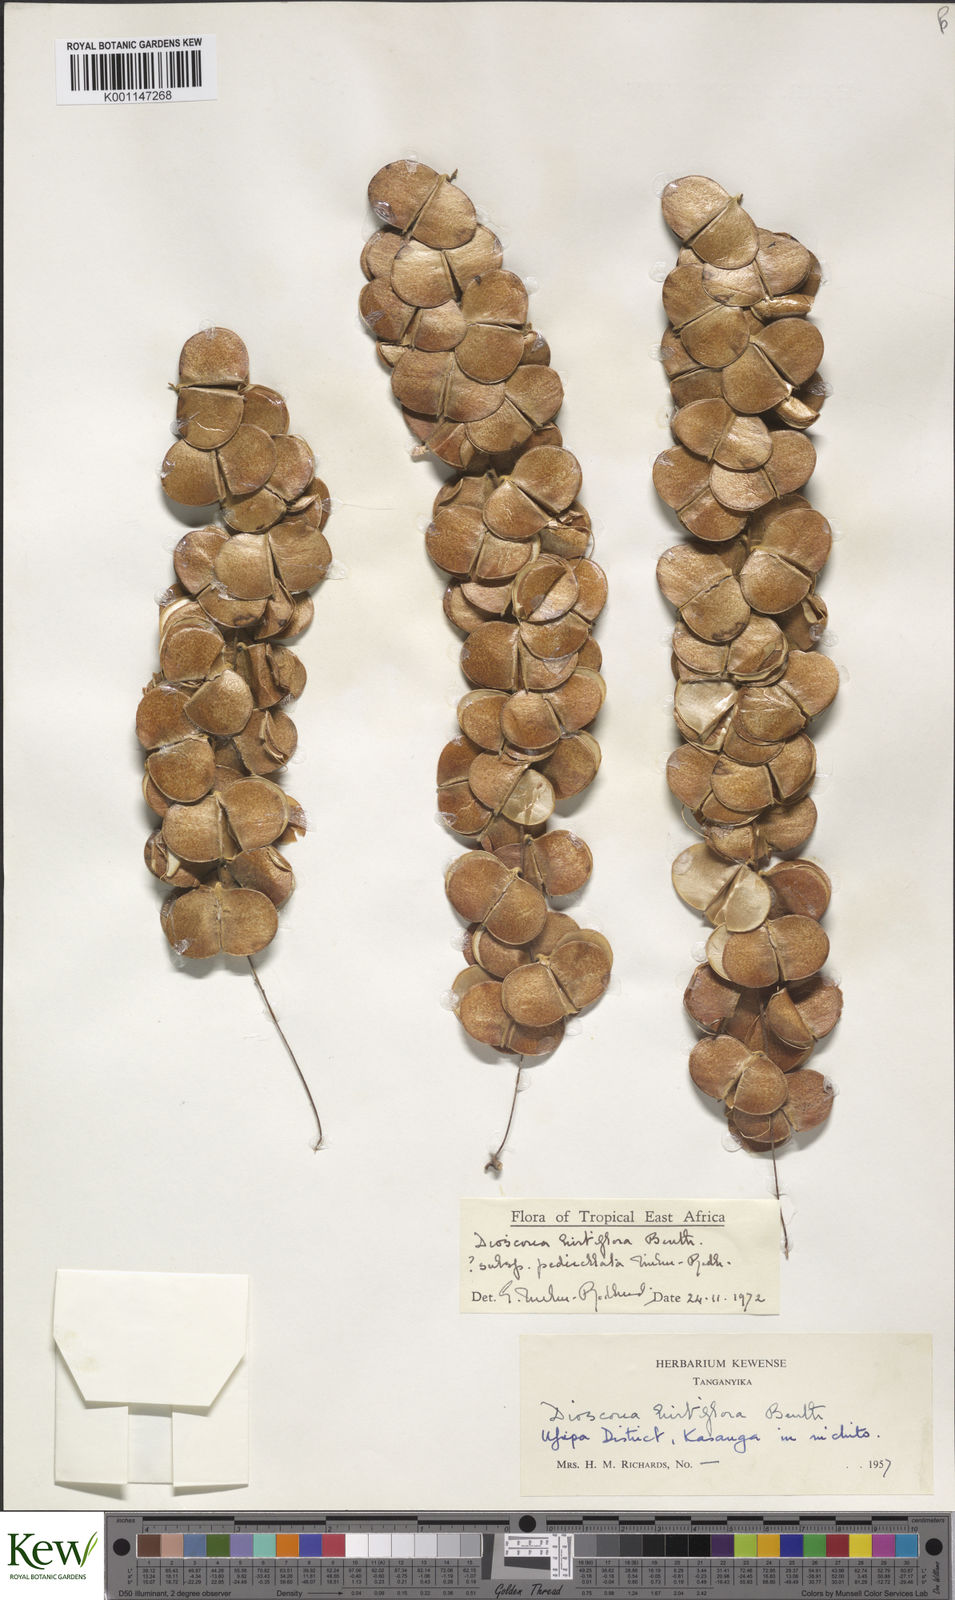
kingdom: Plantae
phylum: Tracheophyta
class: Liliopsida
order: Dioscoreales
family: Dioscoreaceae
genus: Dioscorea
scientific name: Dioscorea hirtiflora
